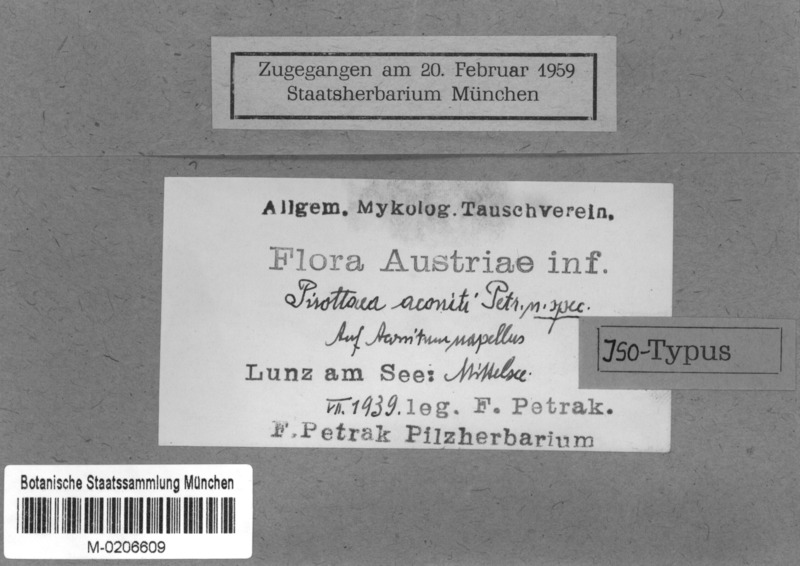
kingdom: Fungi
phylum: Ascomycota
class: Leotiomycetes
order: Helotiales
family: Ploettnerulaceae
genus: Pirottaea
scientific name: Pirottaea aconiti
